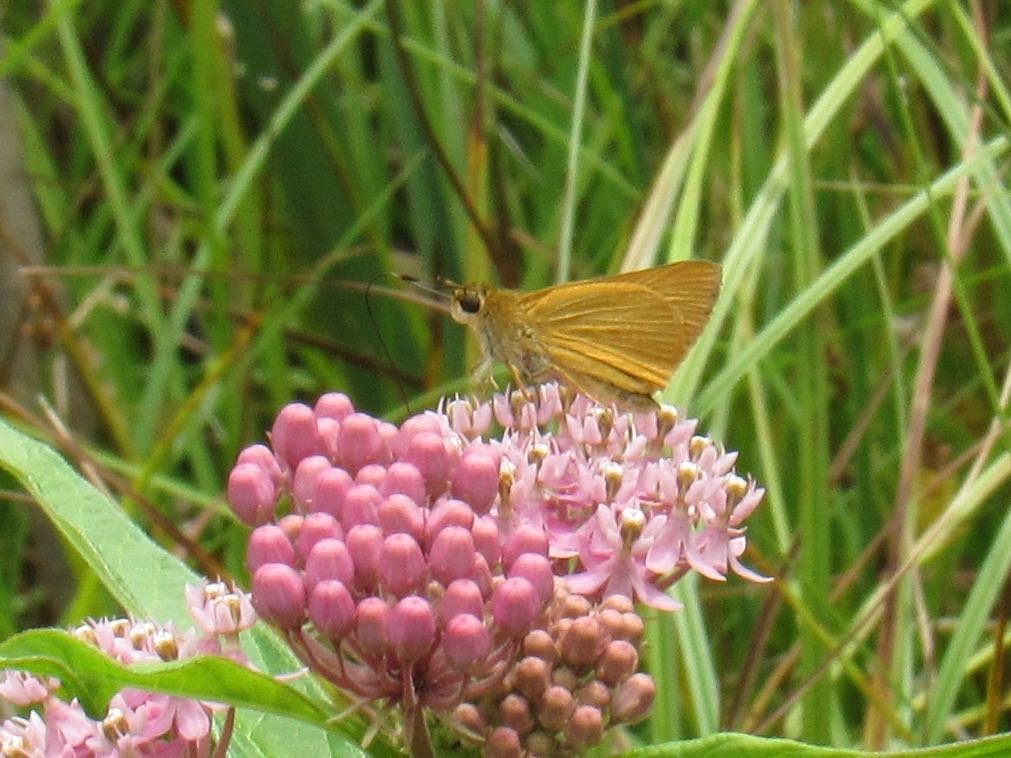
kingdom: Animalia
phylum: Arthropoda
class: Insecta
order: Lepidoptera
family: Hesperiidae
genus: Atrytone
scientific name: Atrytone delaware
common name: Delaware Skipper
